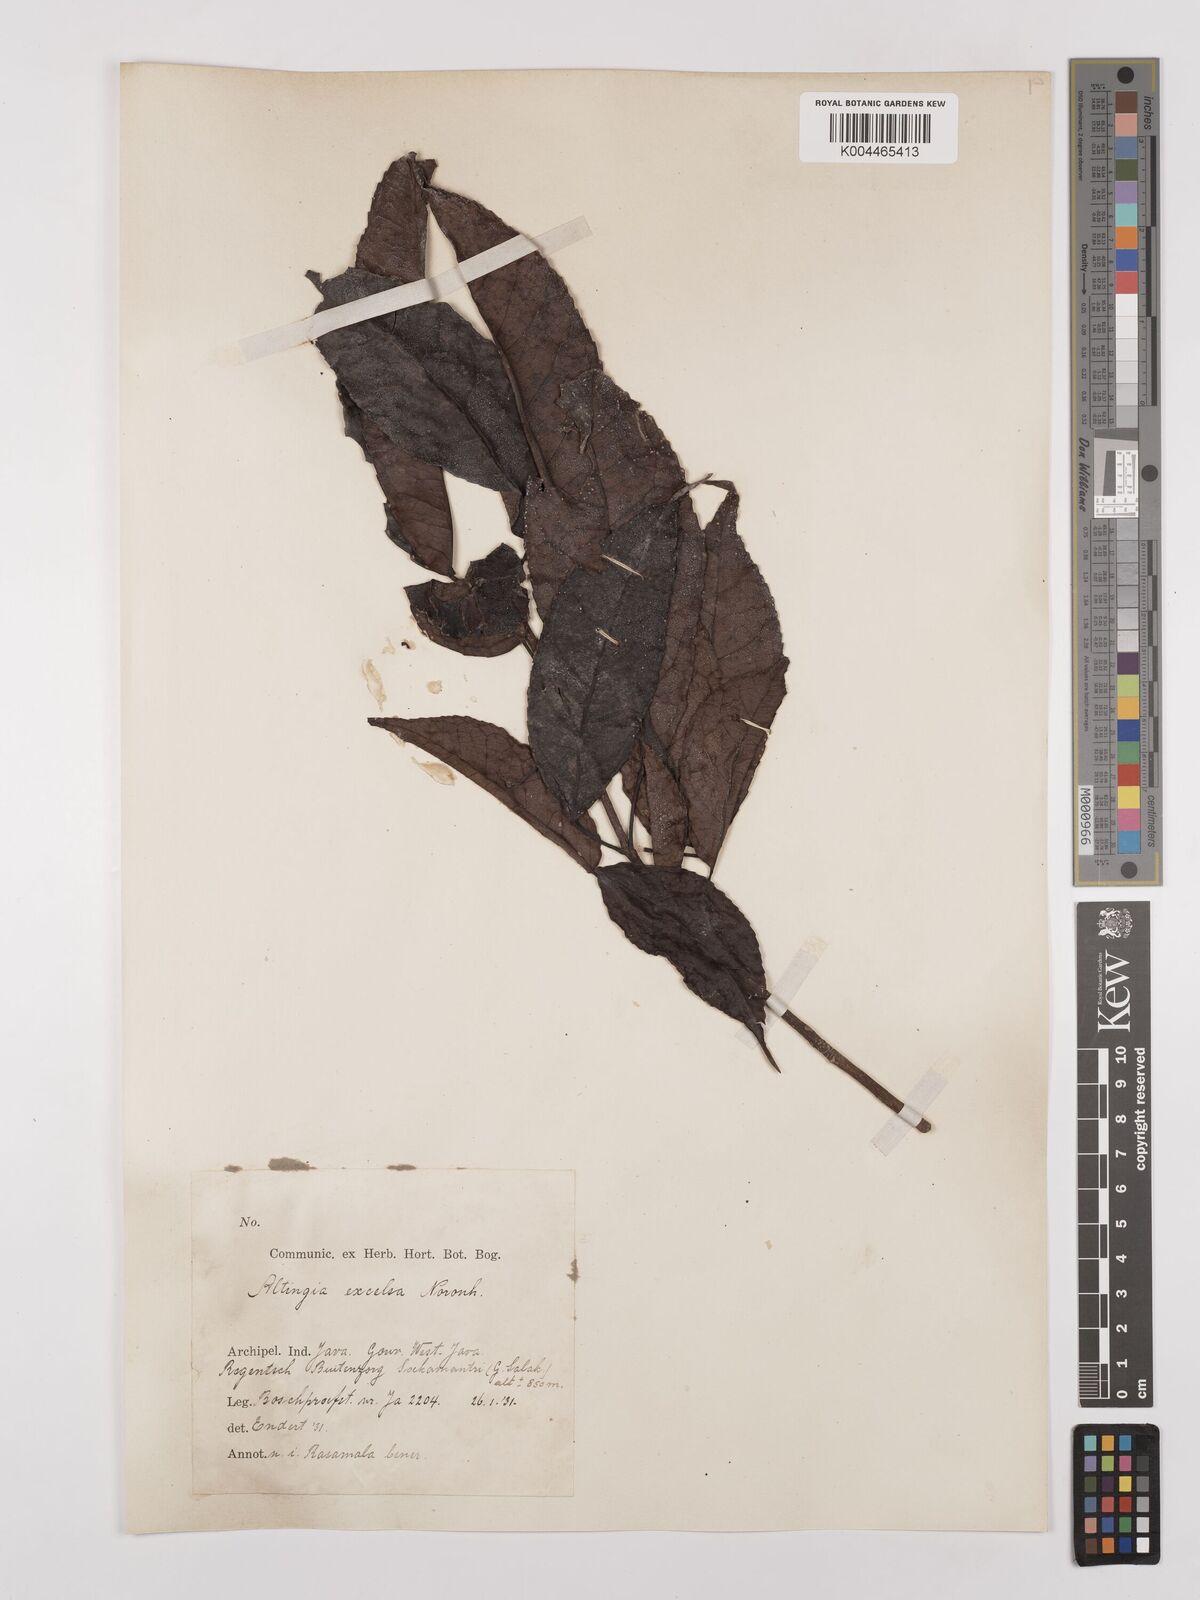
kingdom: Plantae
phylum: Tracheophyta
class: Magnoliopsida
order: Saxifragales
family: Altingiaceae
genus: Liquidambar
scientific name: Liquidambar excelsa
